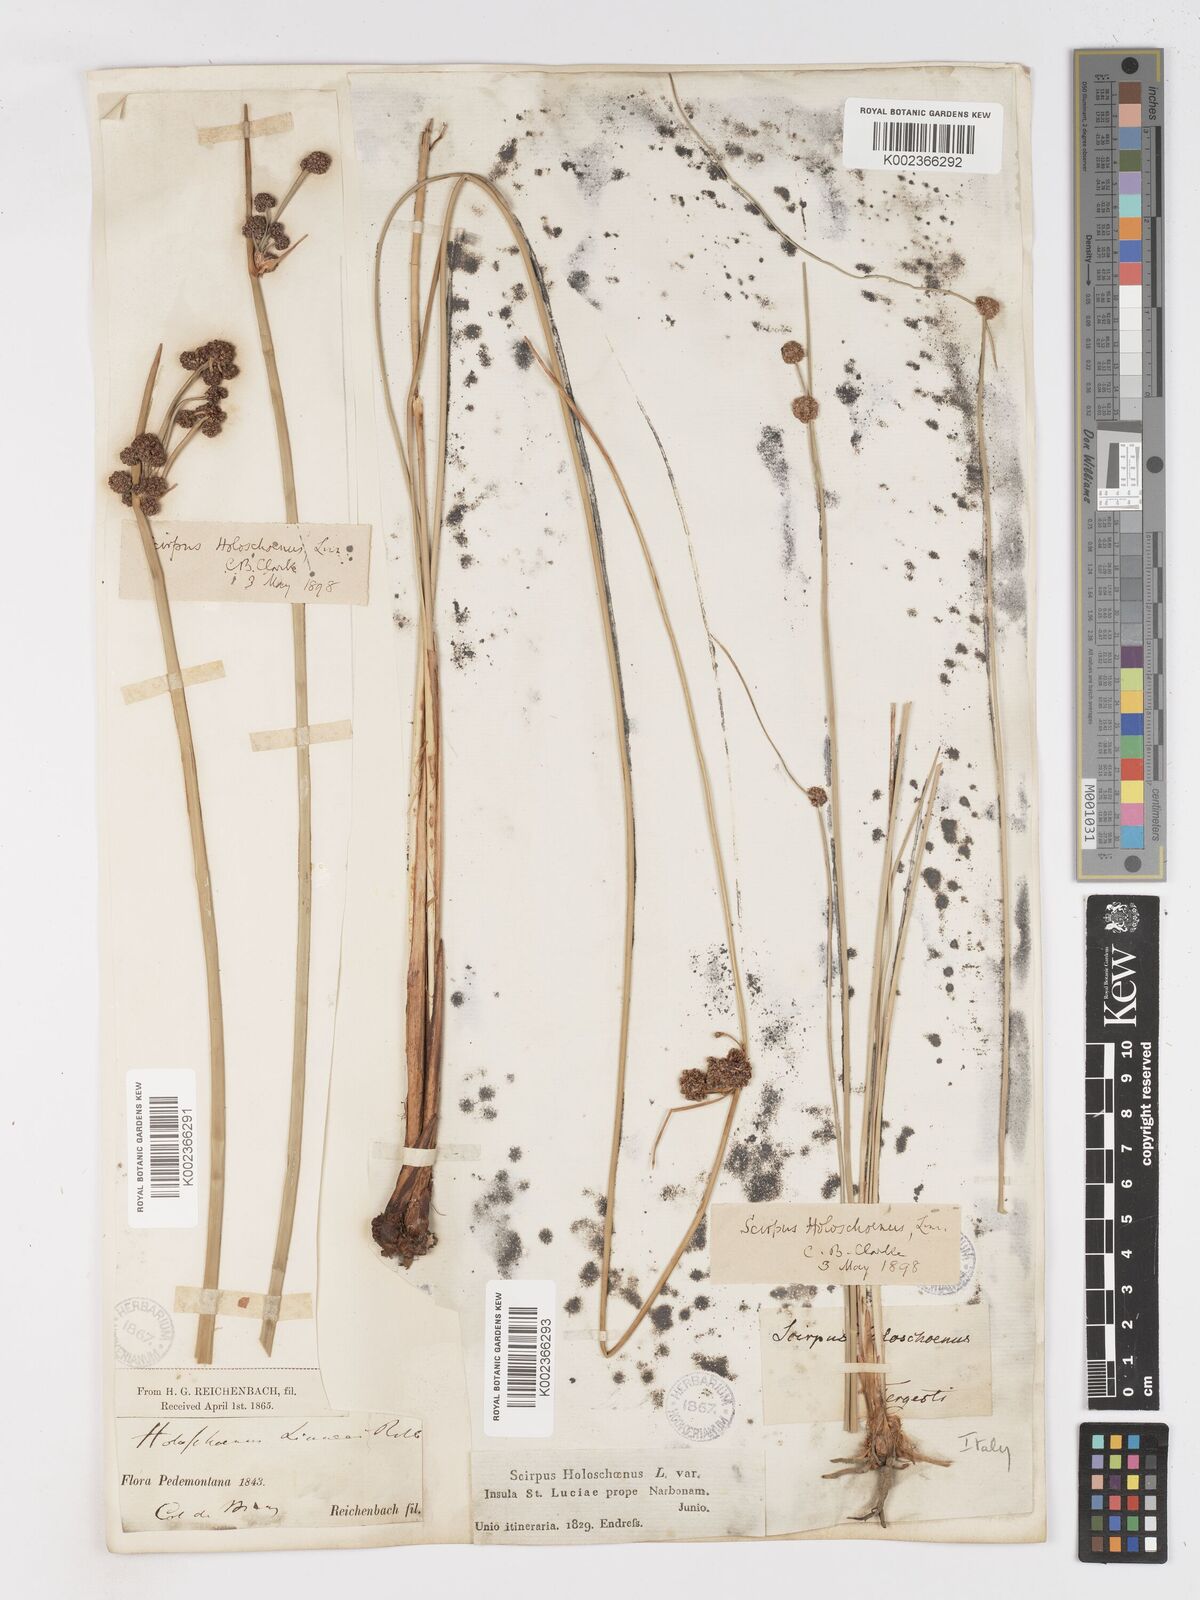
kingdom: Plantae
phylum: Tracheophyta
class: Liliopsida
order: Poales
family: Cyperaceae
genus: Scirpoides
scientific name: Scirpoides holoschoenus
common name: Round-headed club-rush
